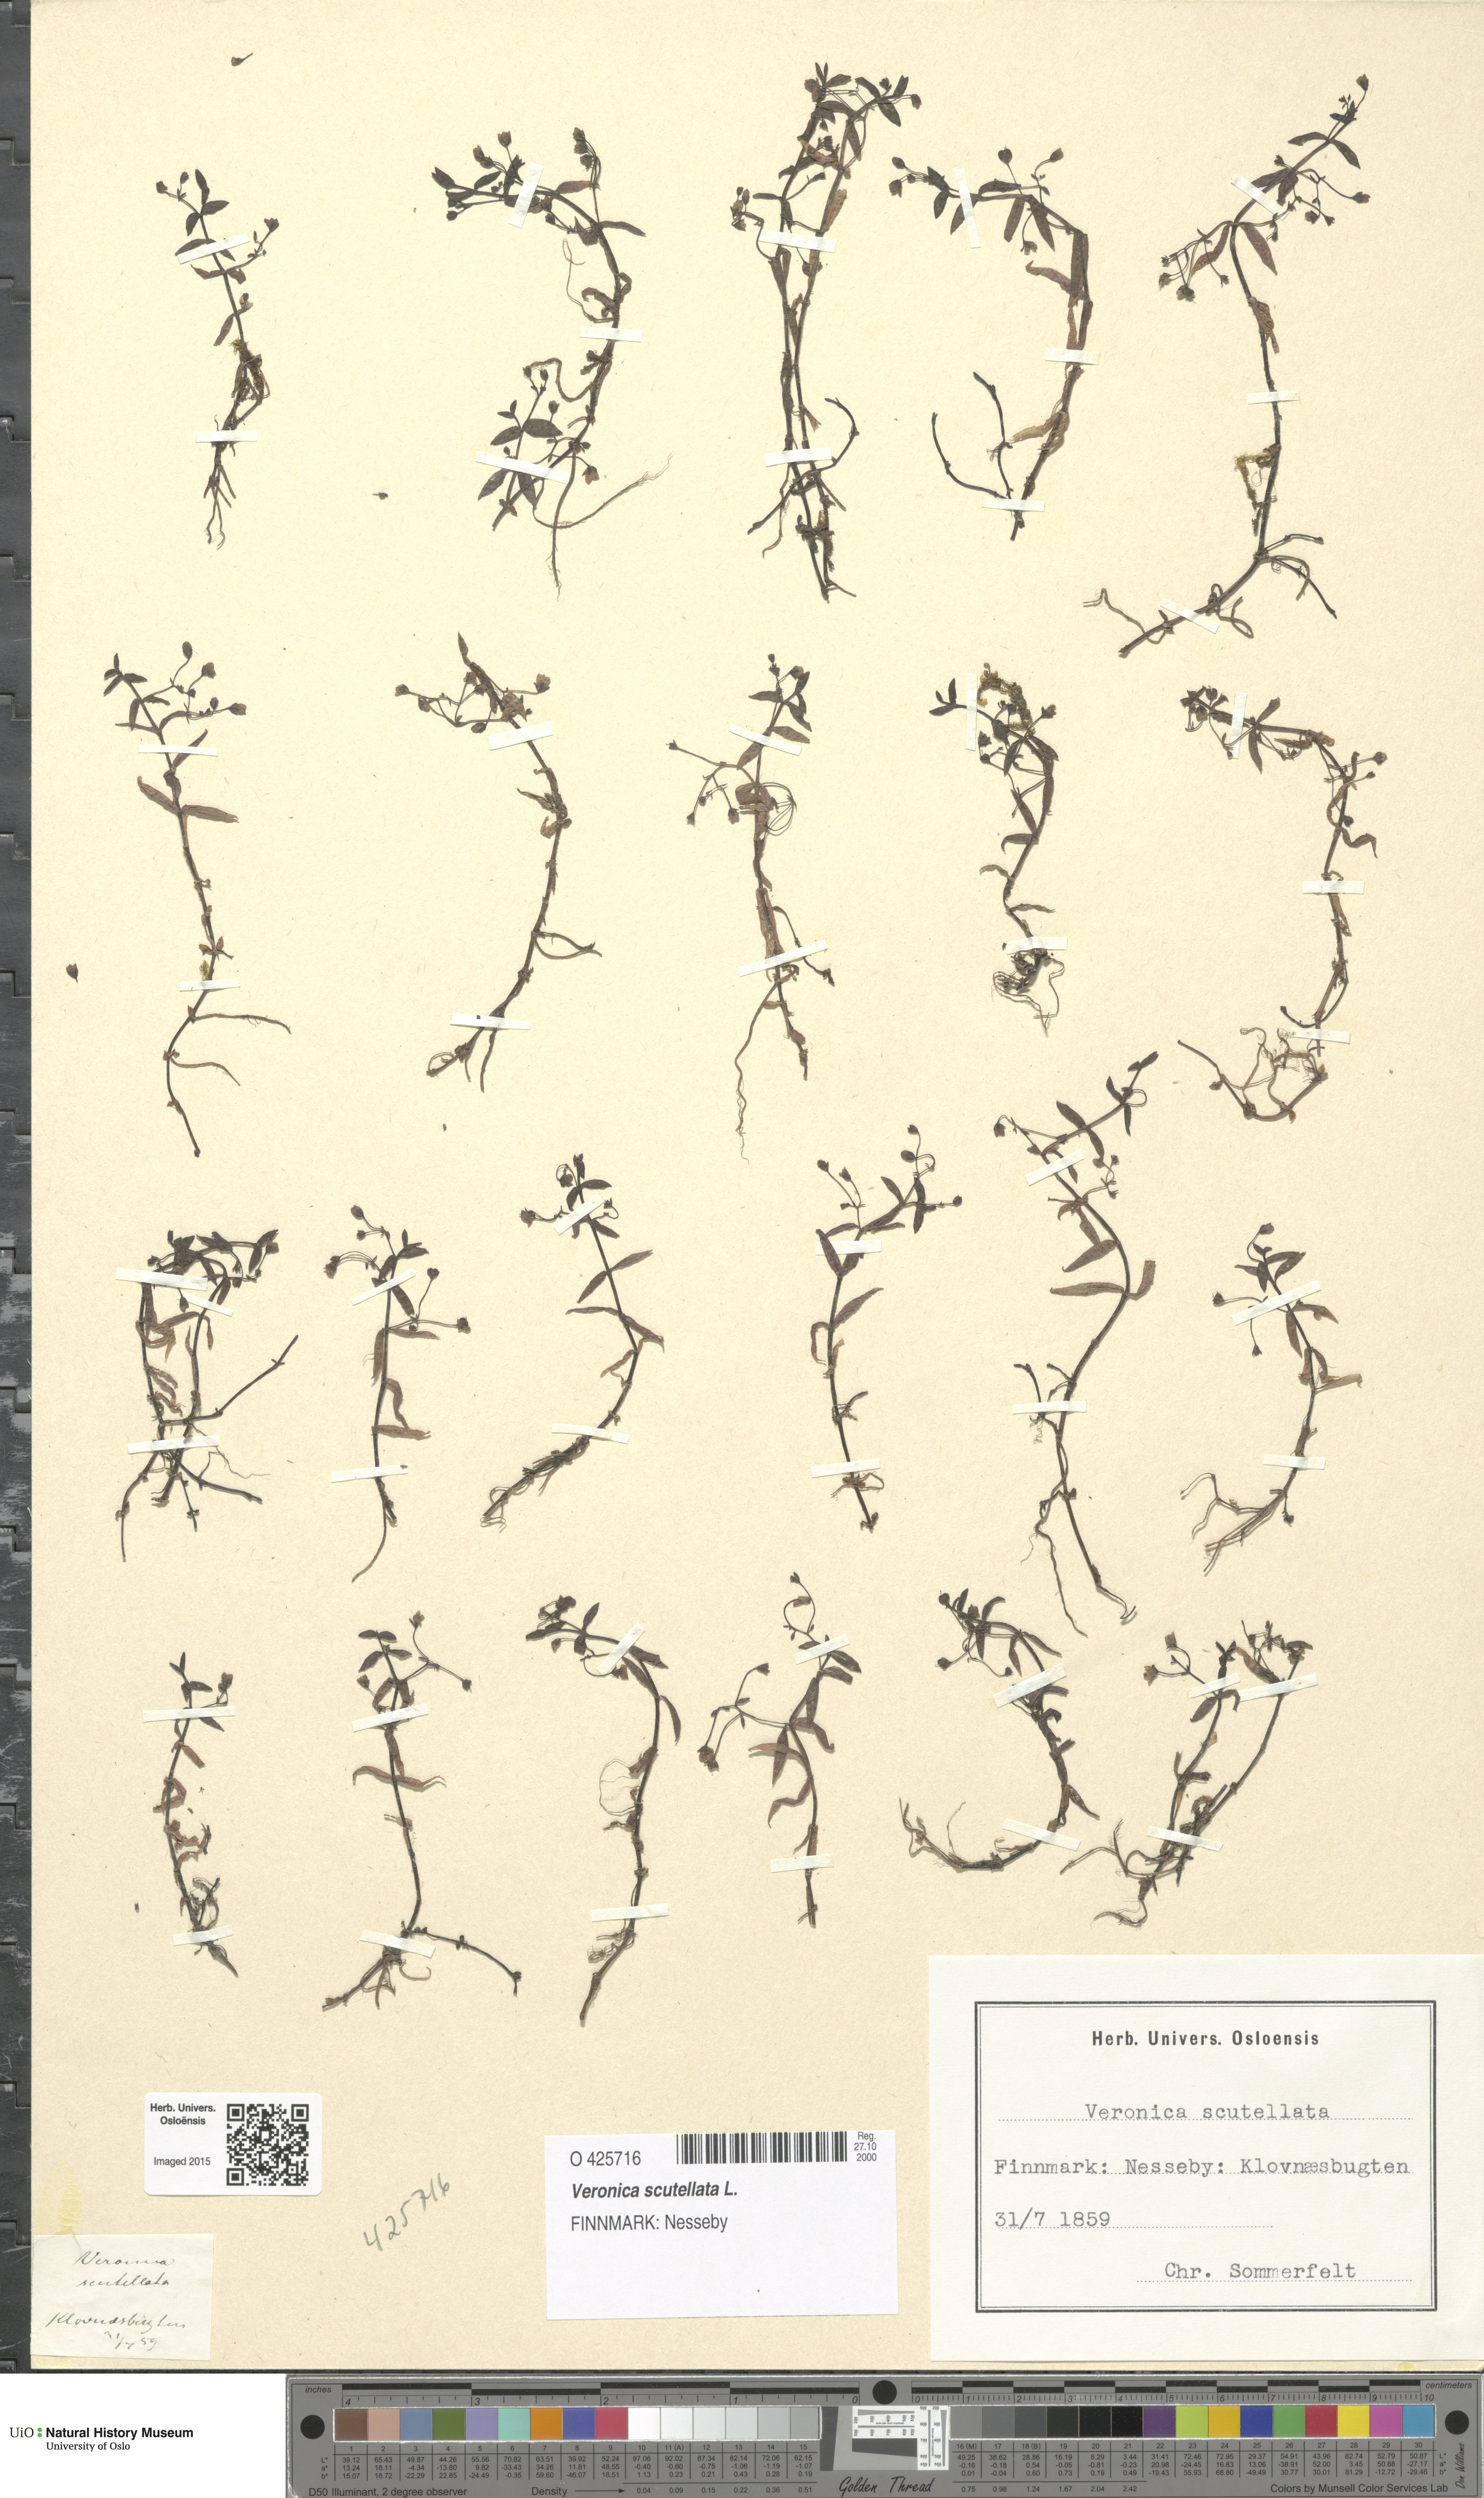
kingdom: Plantae
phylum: Tracheophyta
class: Magnoliopsida
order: Lamiales
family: Plantaginaceae
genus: Veronica
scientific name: Veronica scutellata
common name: Marsh speedwell
